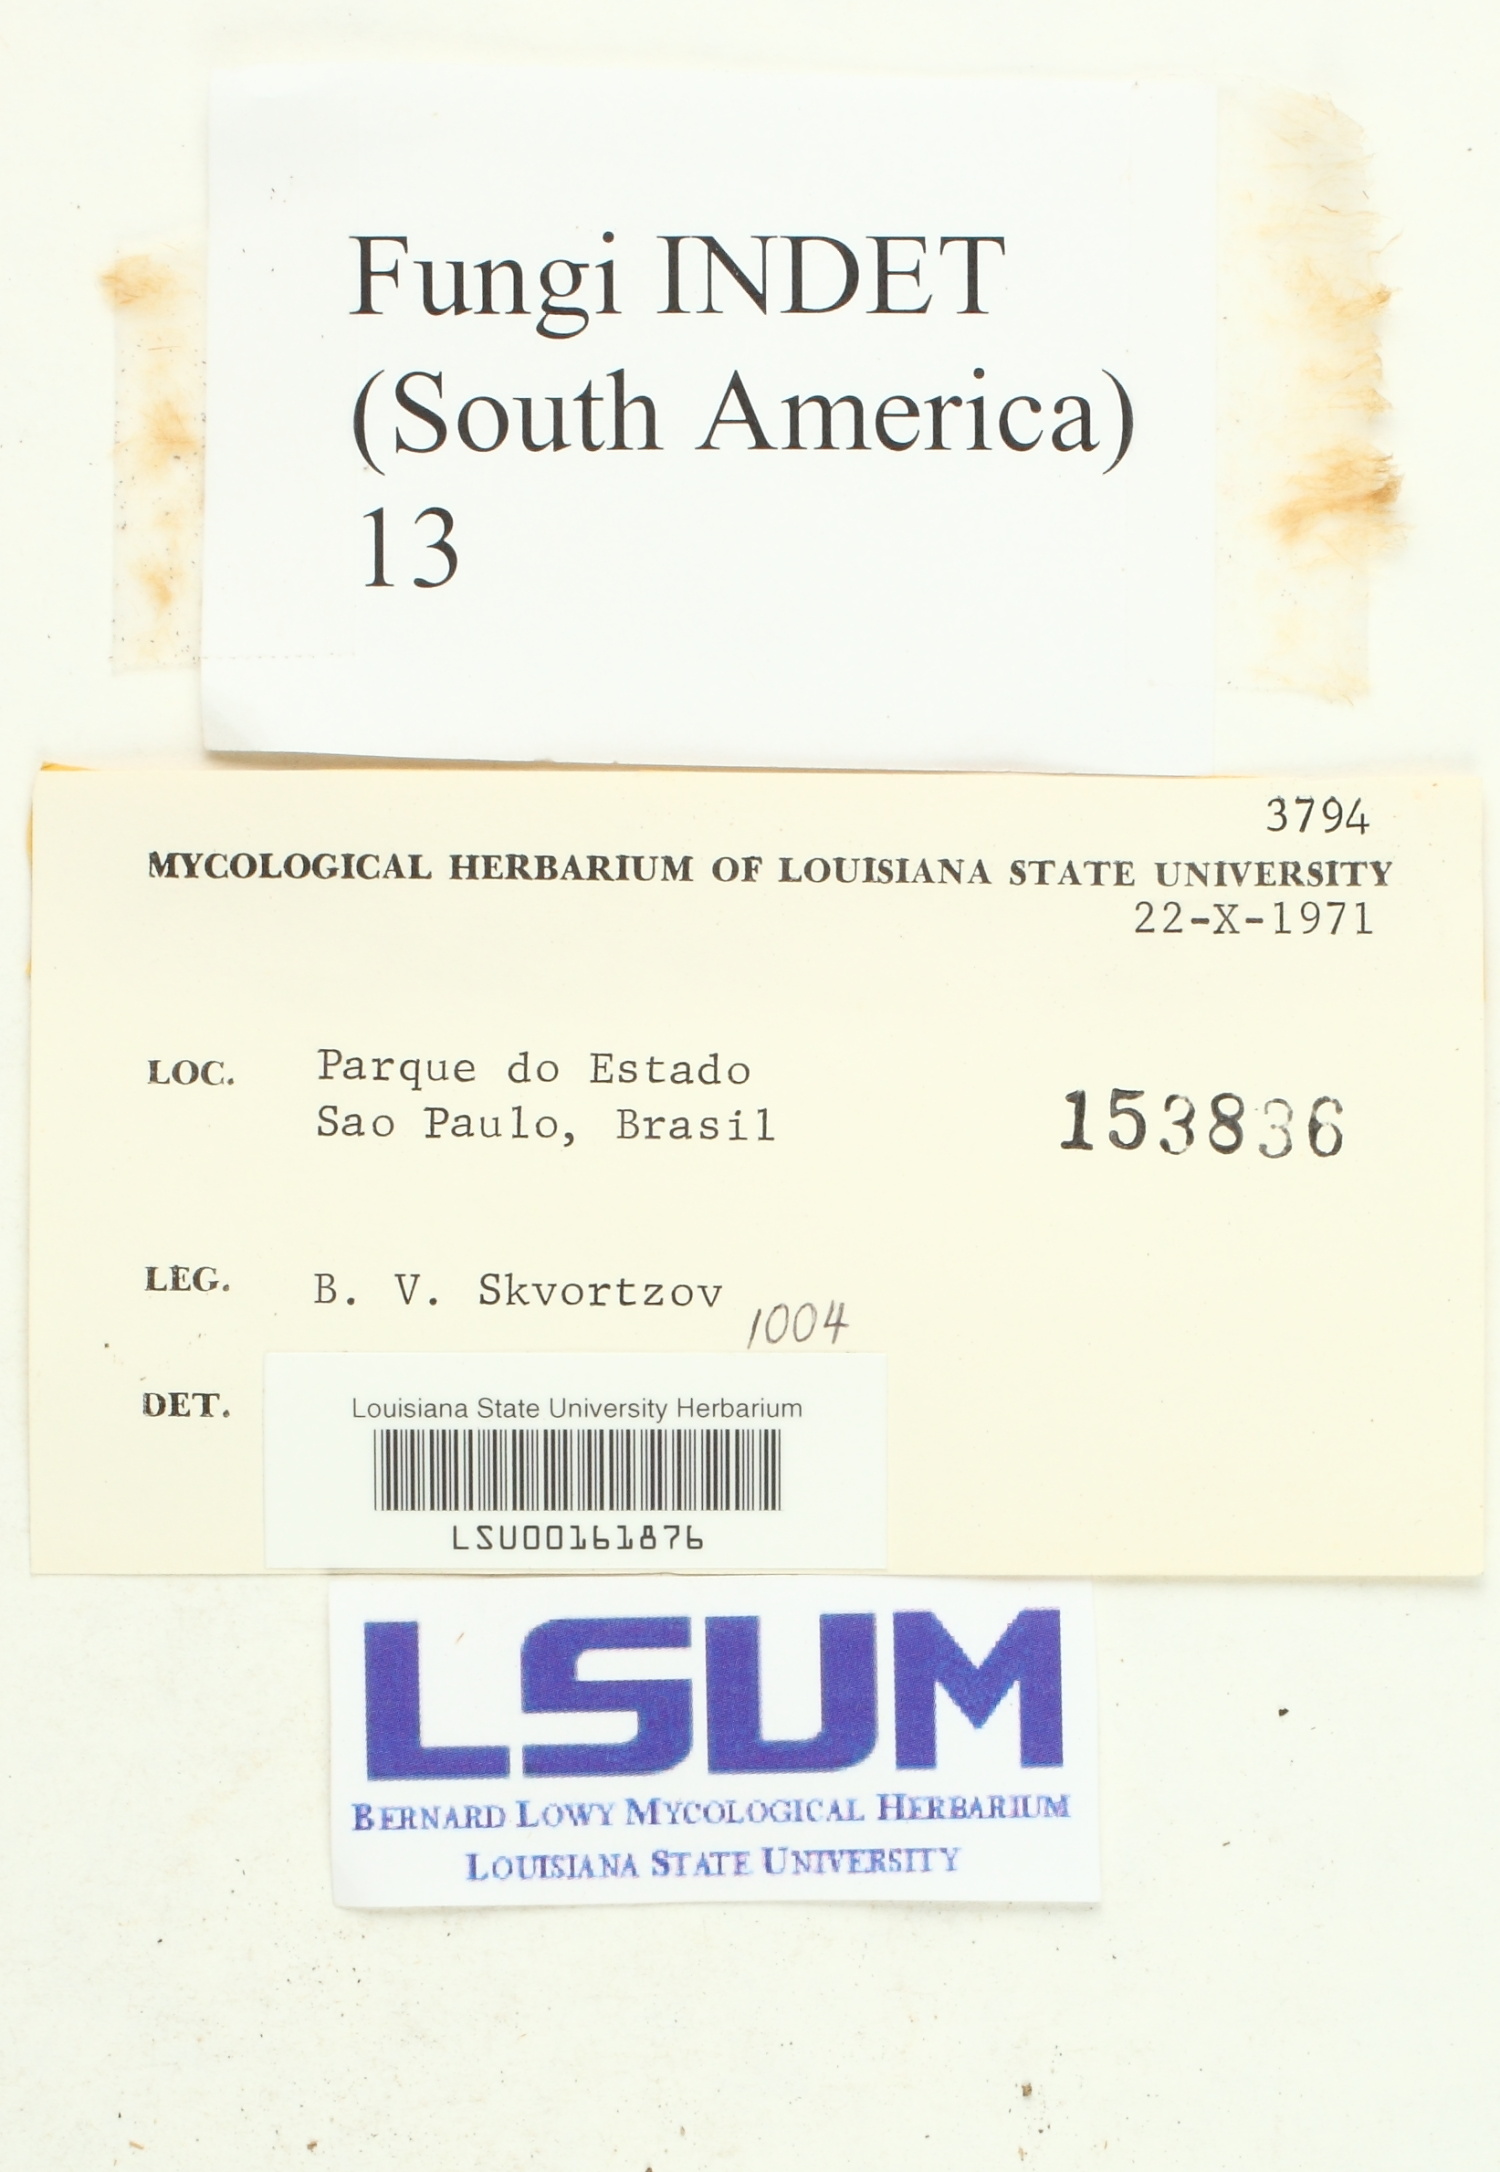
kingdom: Fungi
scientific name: Fungi
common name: Fungi
